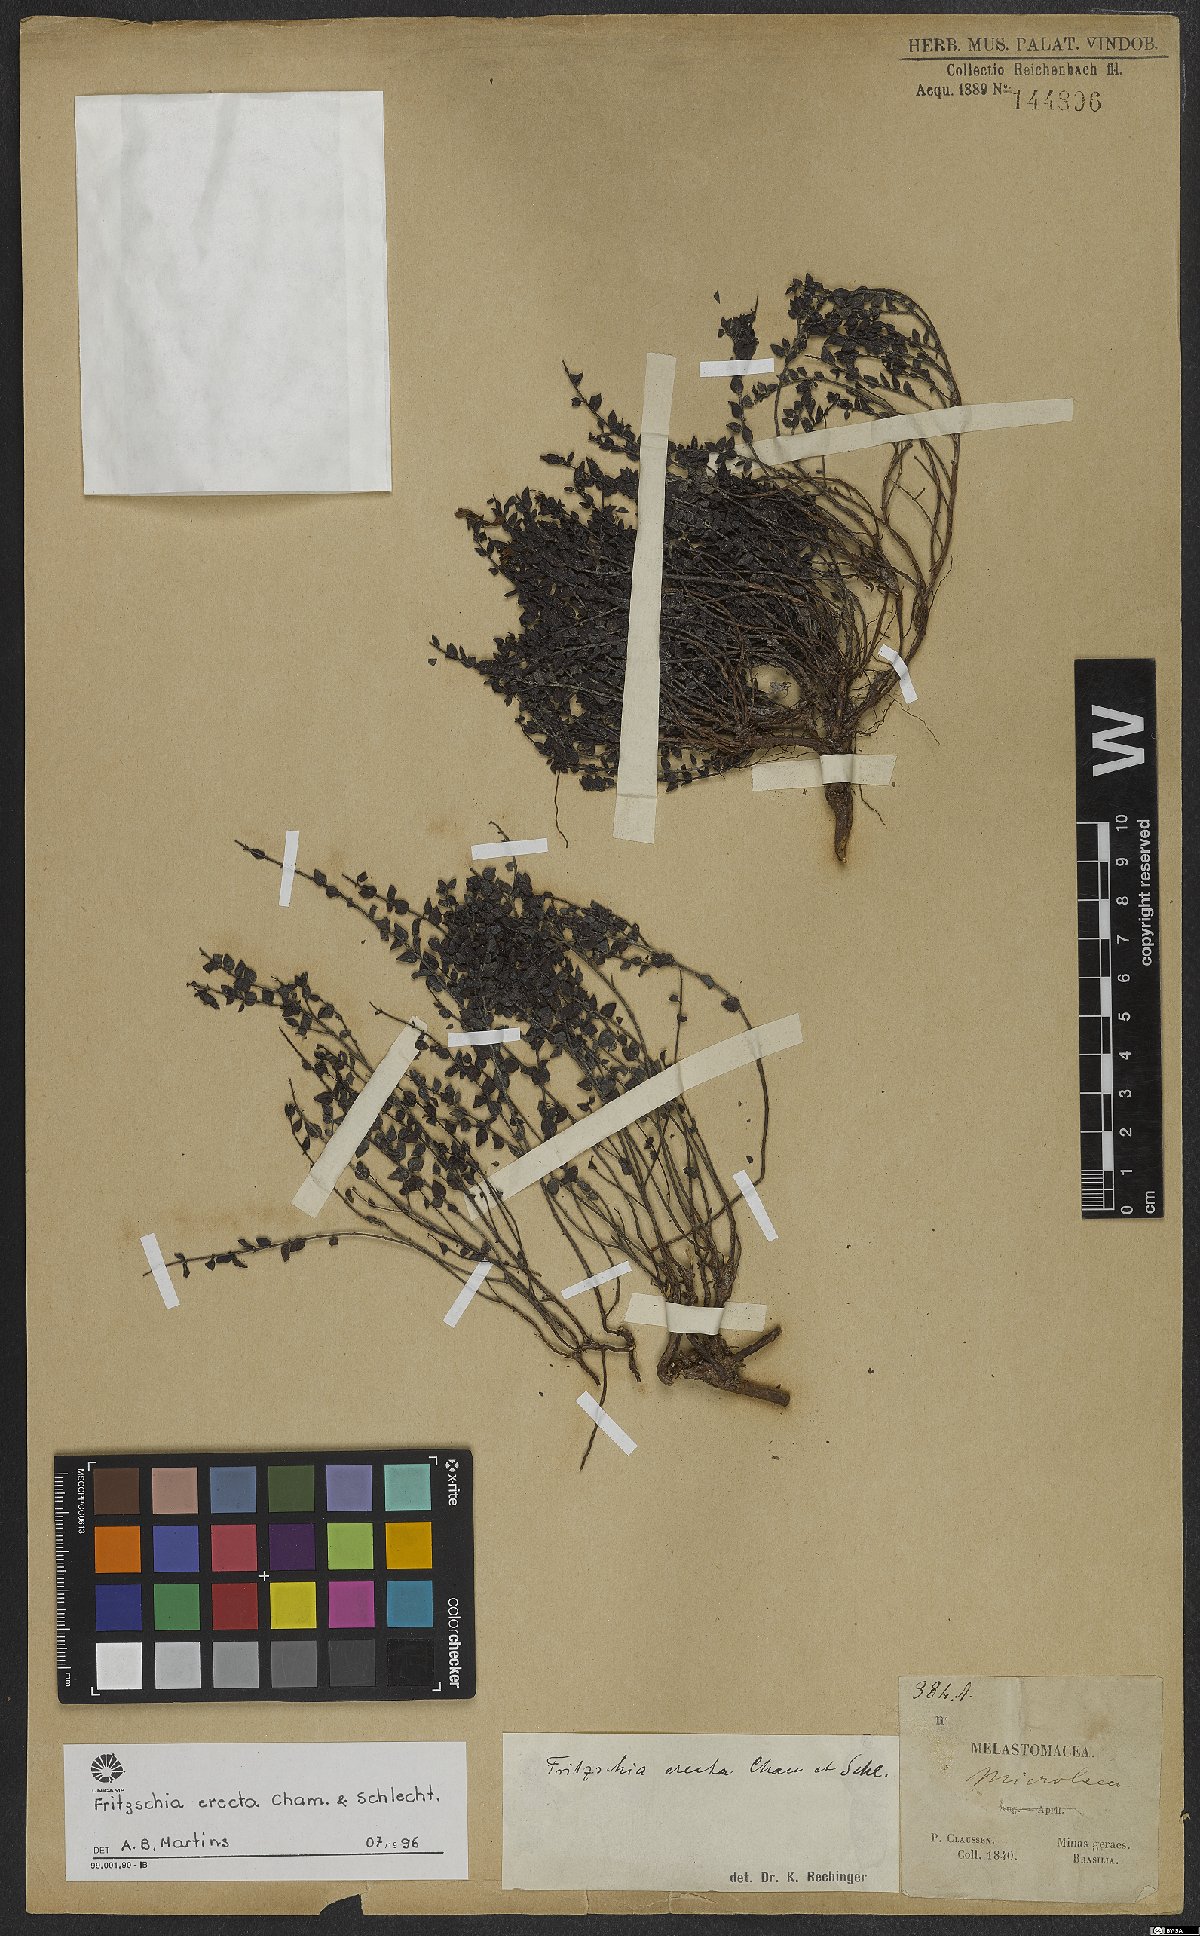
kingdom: Plantae
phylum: Tracheophyta
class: Magnoliopsida
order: Myrtales
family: Melastomataceae
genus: Fritzschia
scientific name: Fritzschia erecta
